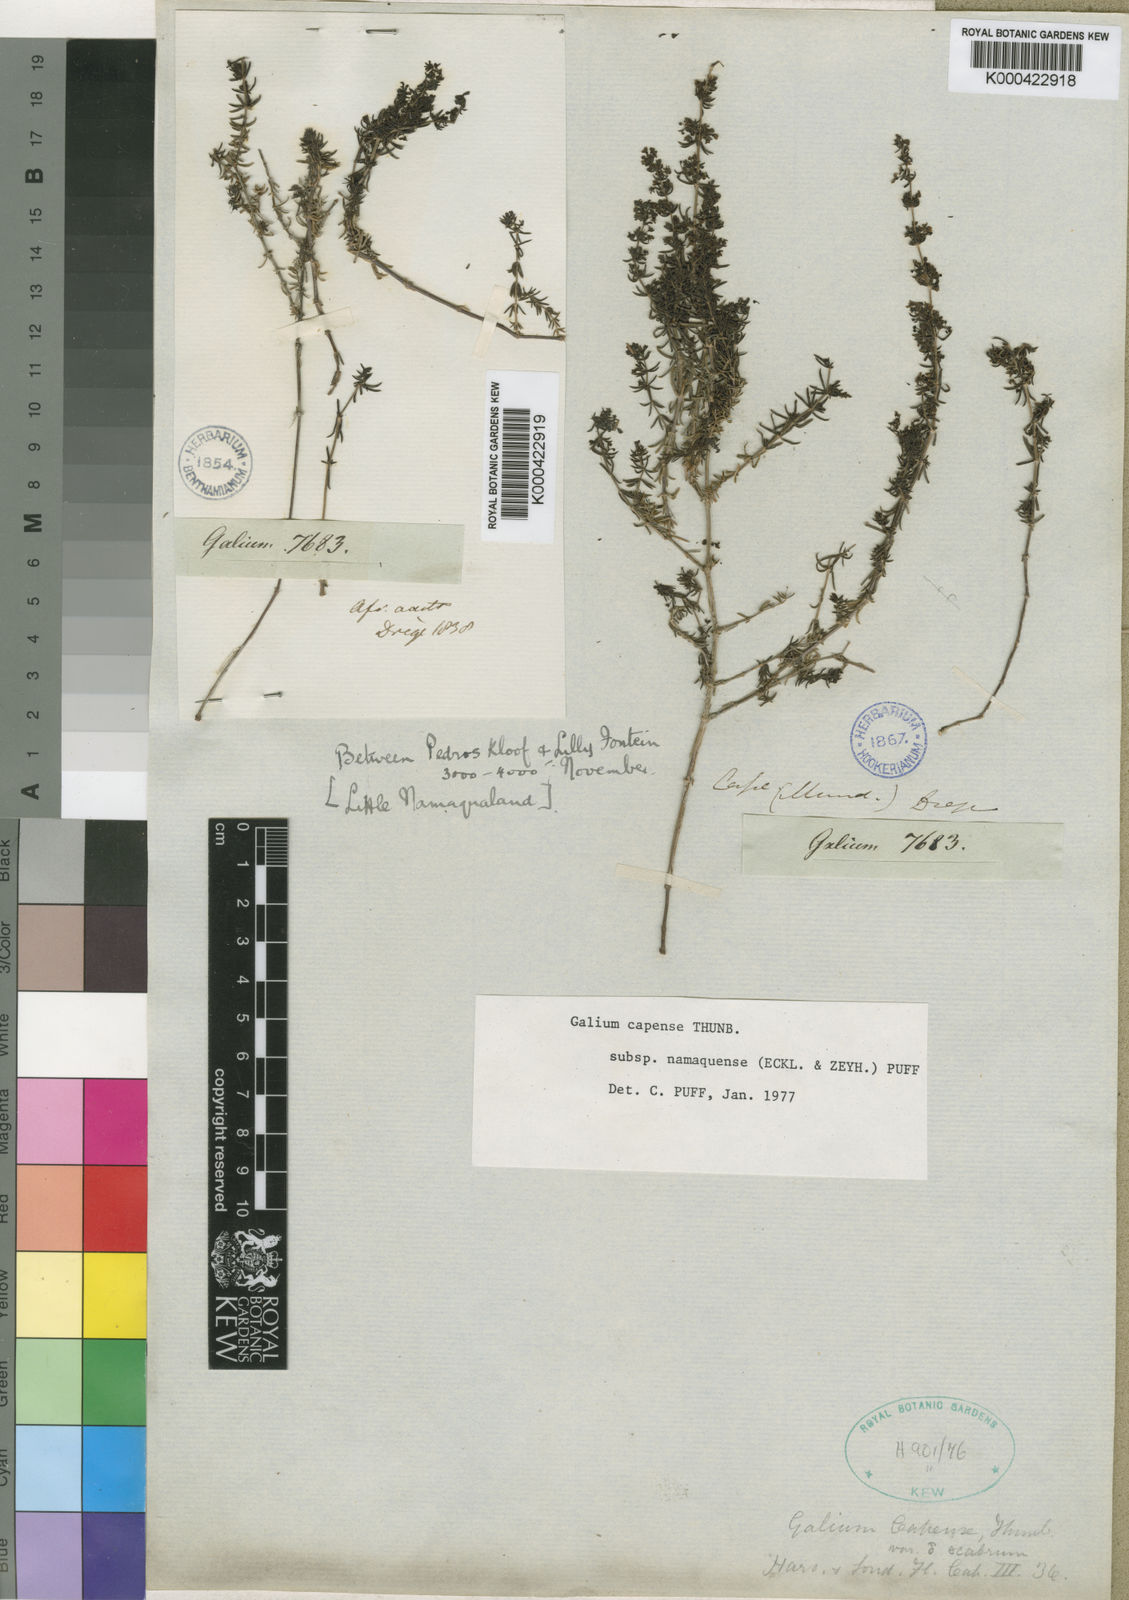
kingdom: Plantae
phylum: Tracheophyta
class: Magnoliopsida
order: Gentianales
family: Rubiaceae
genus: Galium
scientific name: Galium capense
